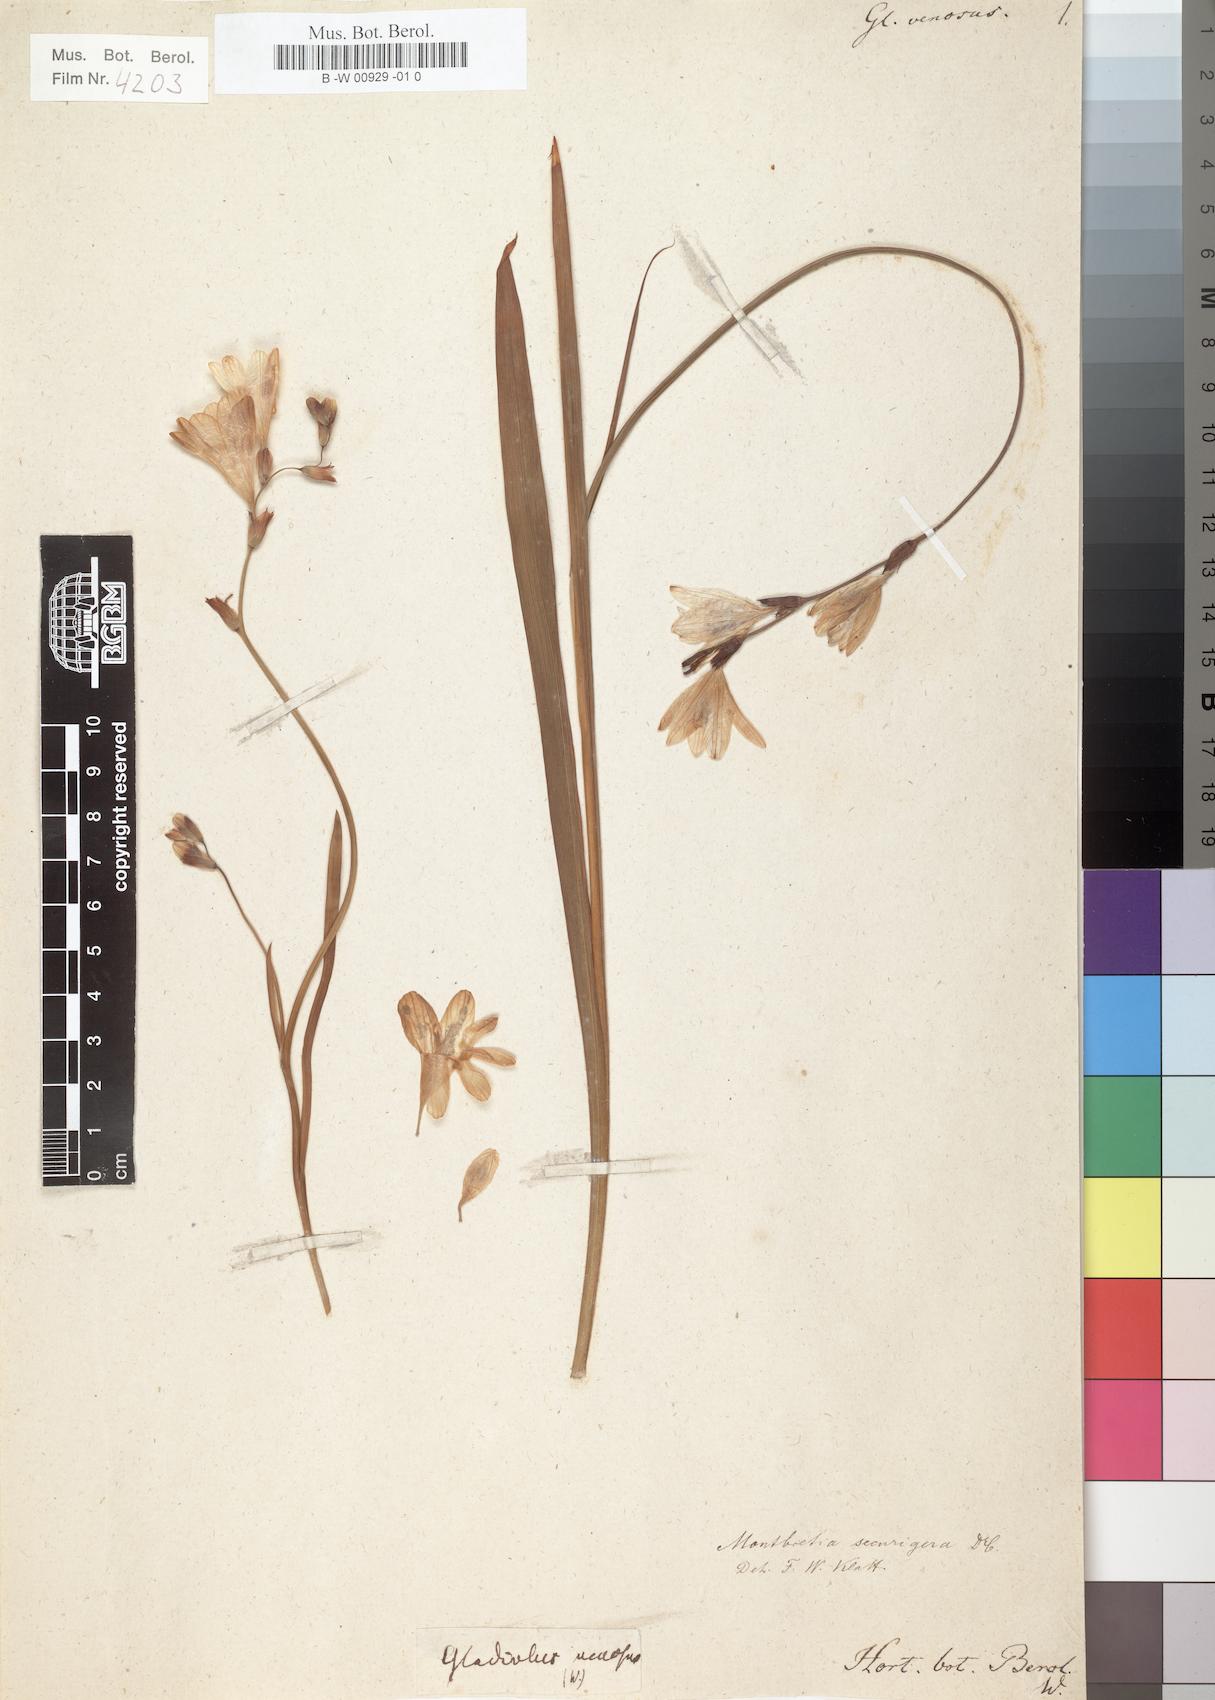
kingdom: Plantae
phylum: Tracheophyta
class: Liliopsida
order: Asparagales
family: Iridaceae
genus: Tritonia
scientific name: Tritonia gladiolaris
